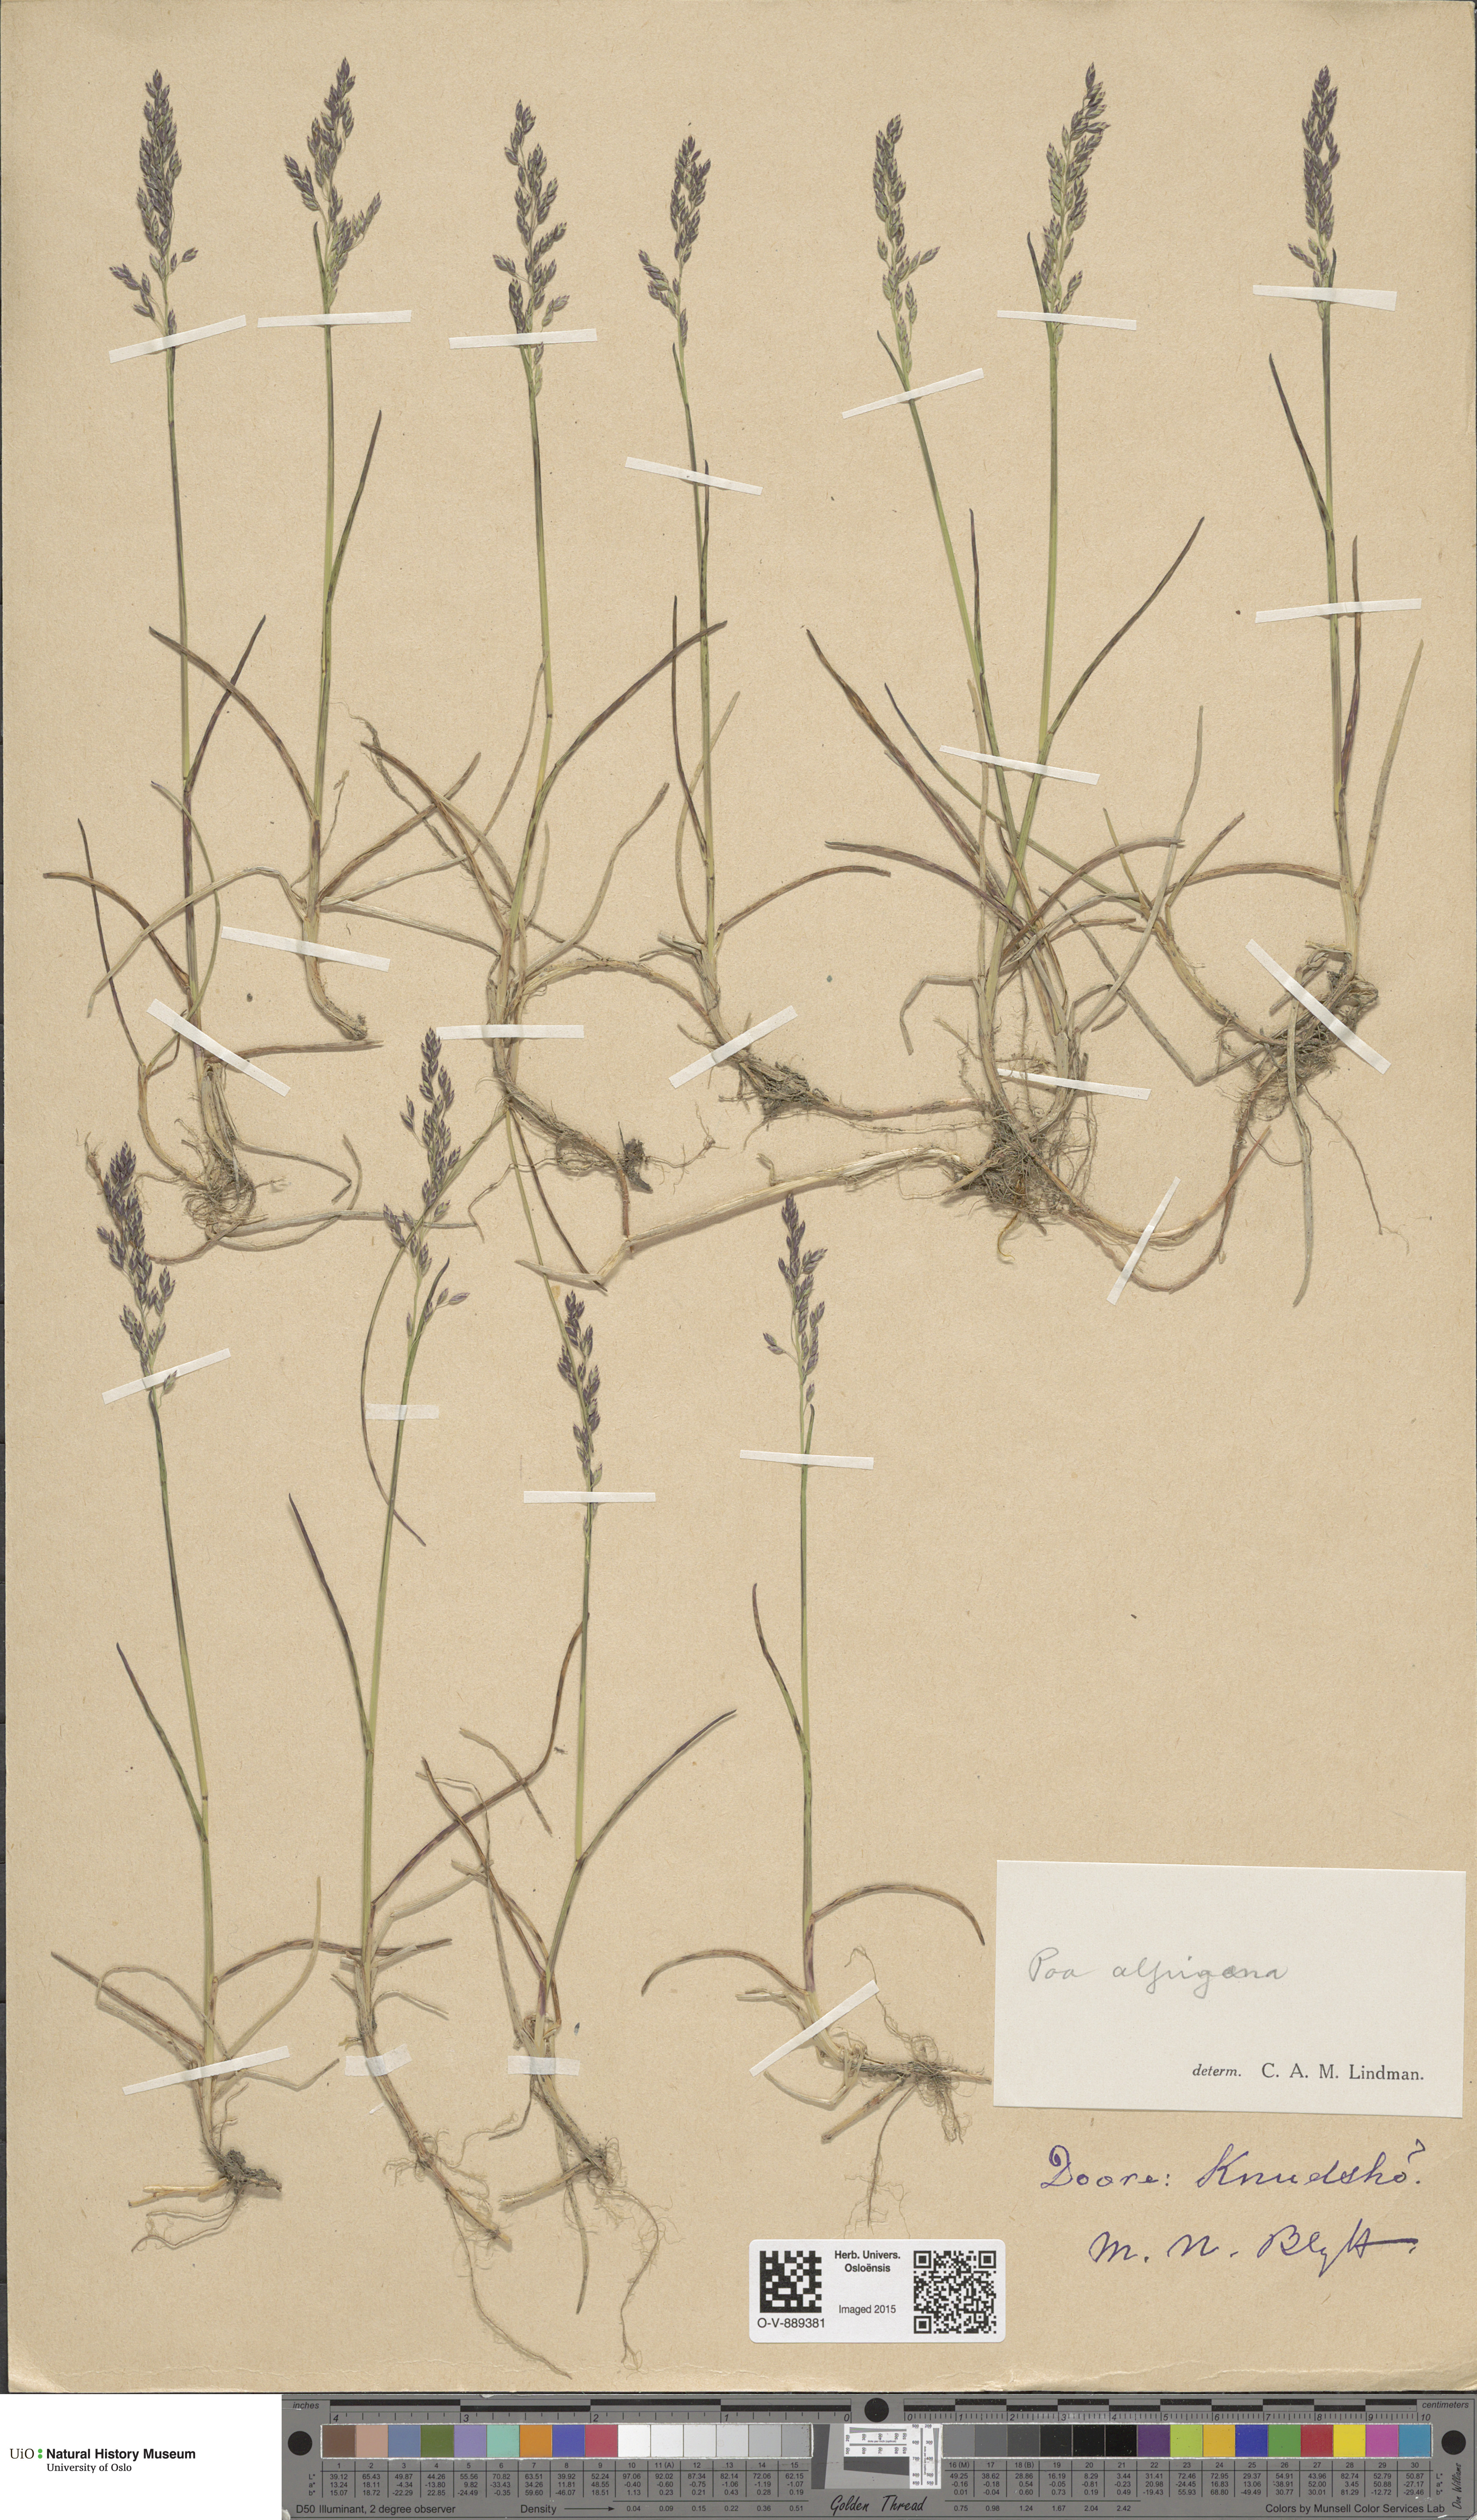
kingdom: Plantae
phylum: Tracheophyta
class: Liliopsida
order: Poales
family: Poaceae
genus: Poa
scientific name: Poa alpigena
